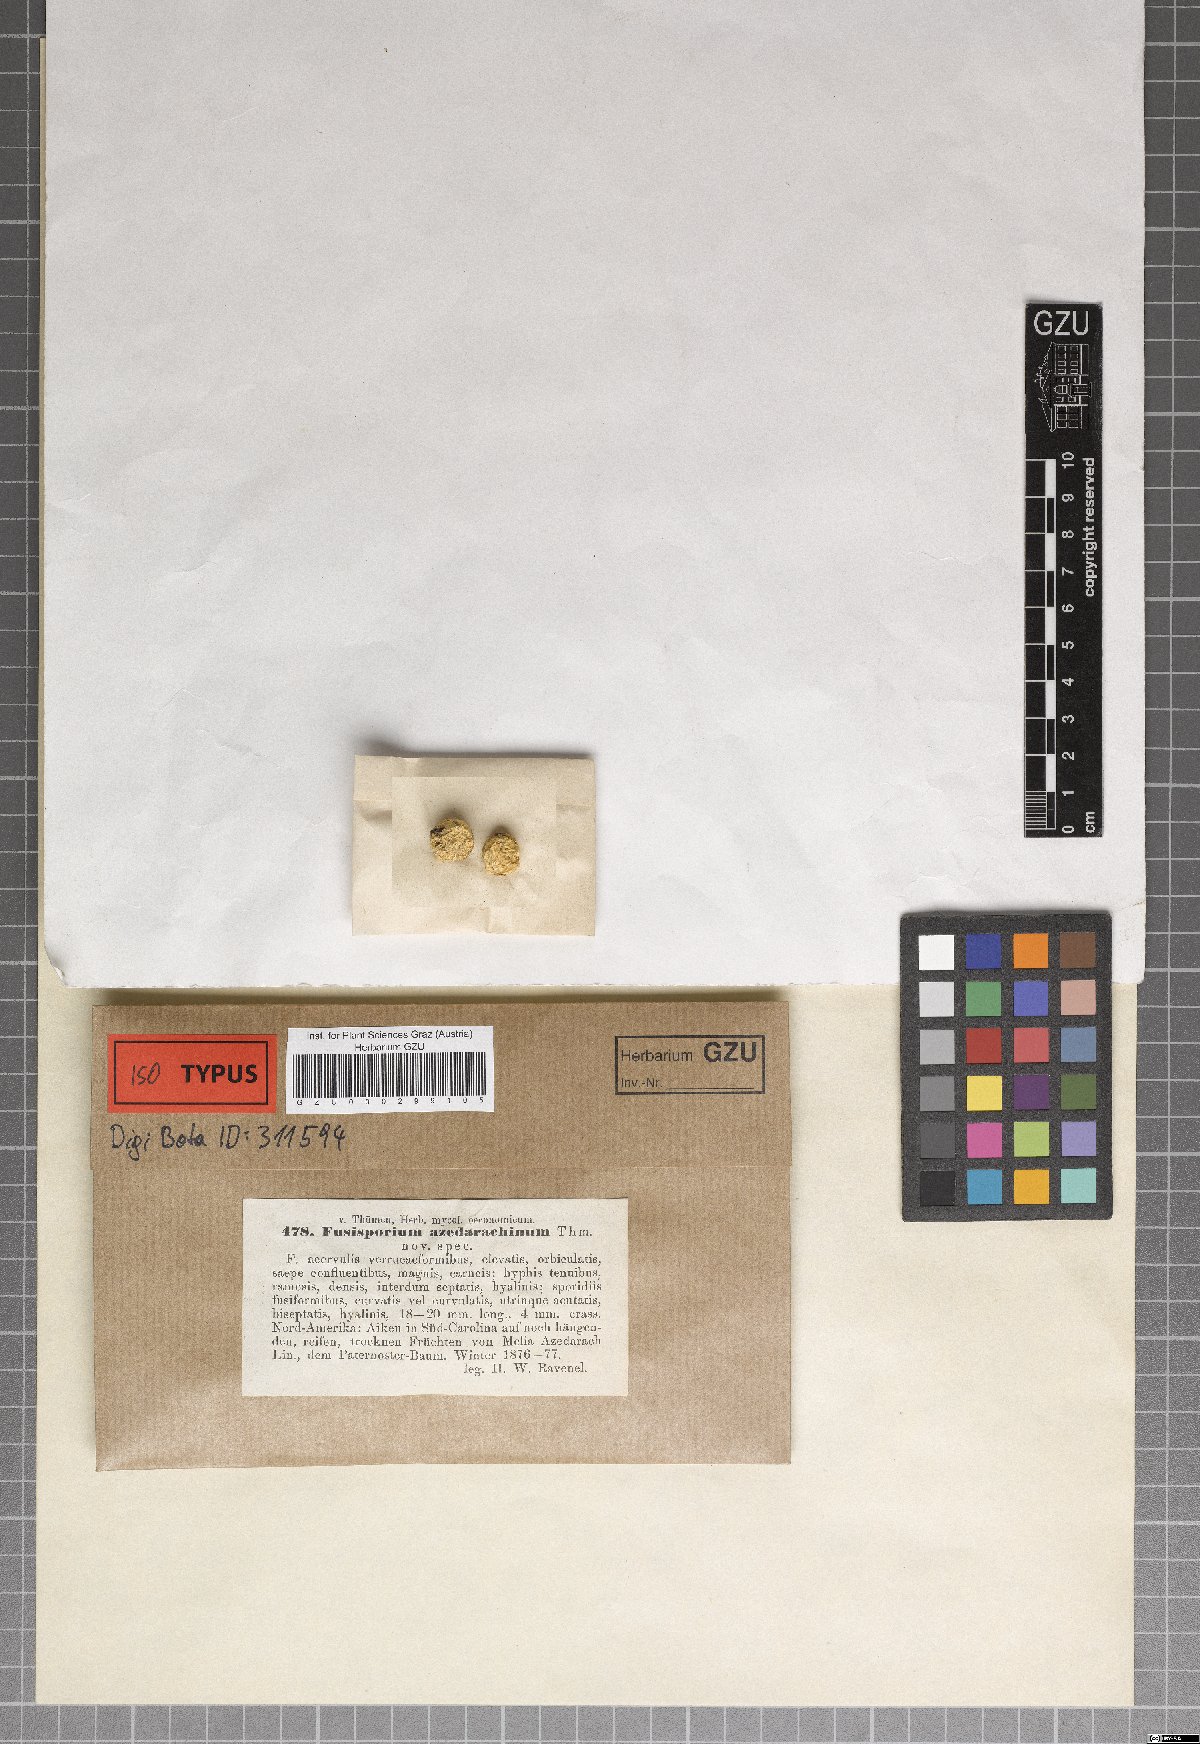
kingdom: Fungi
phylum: Ascomycota
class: Sordariomycetes
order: Hypocreales
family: Nectriaceae
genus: Fusisporium
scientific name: Fusisporium
